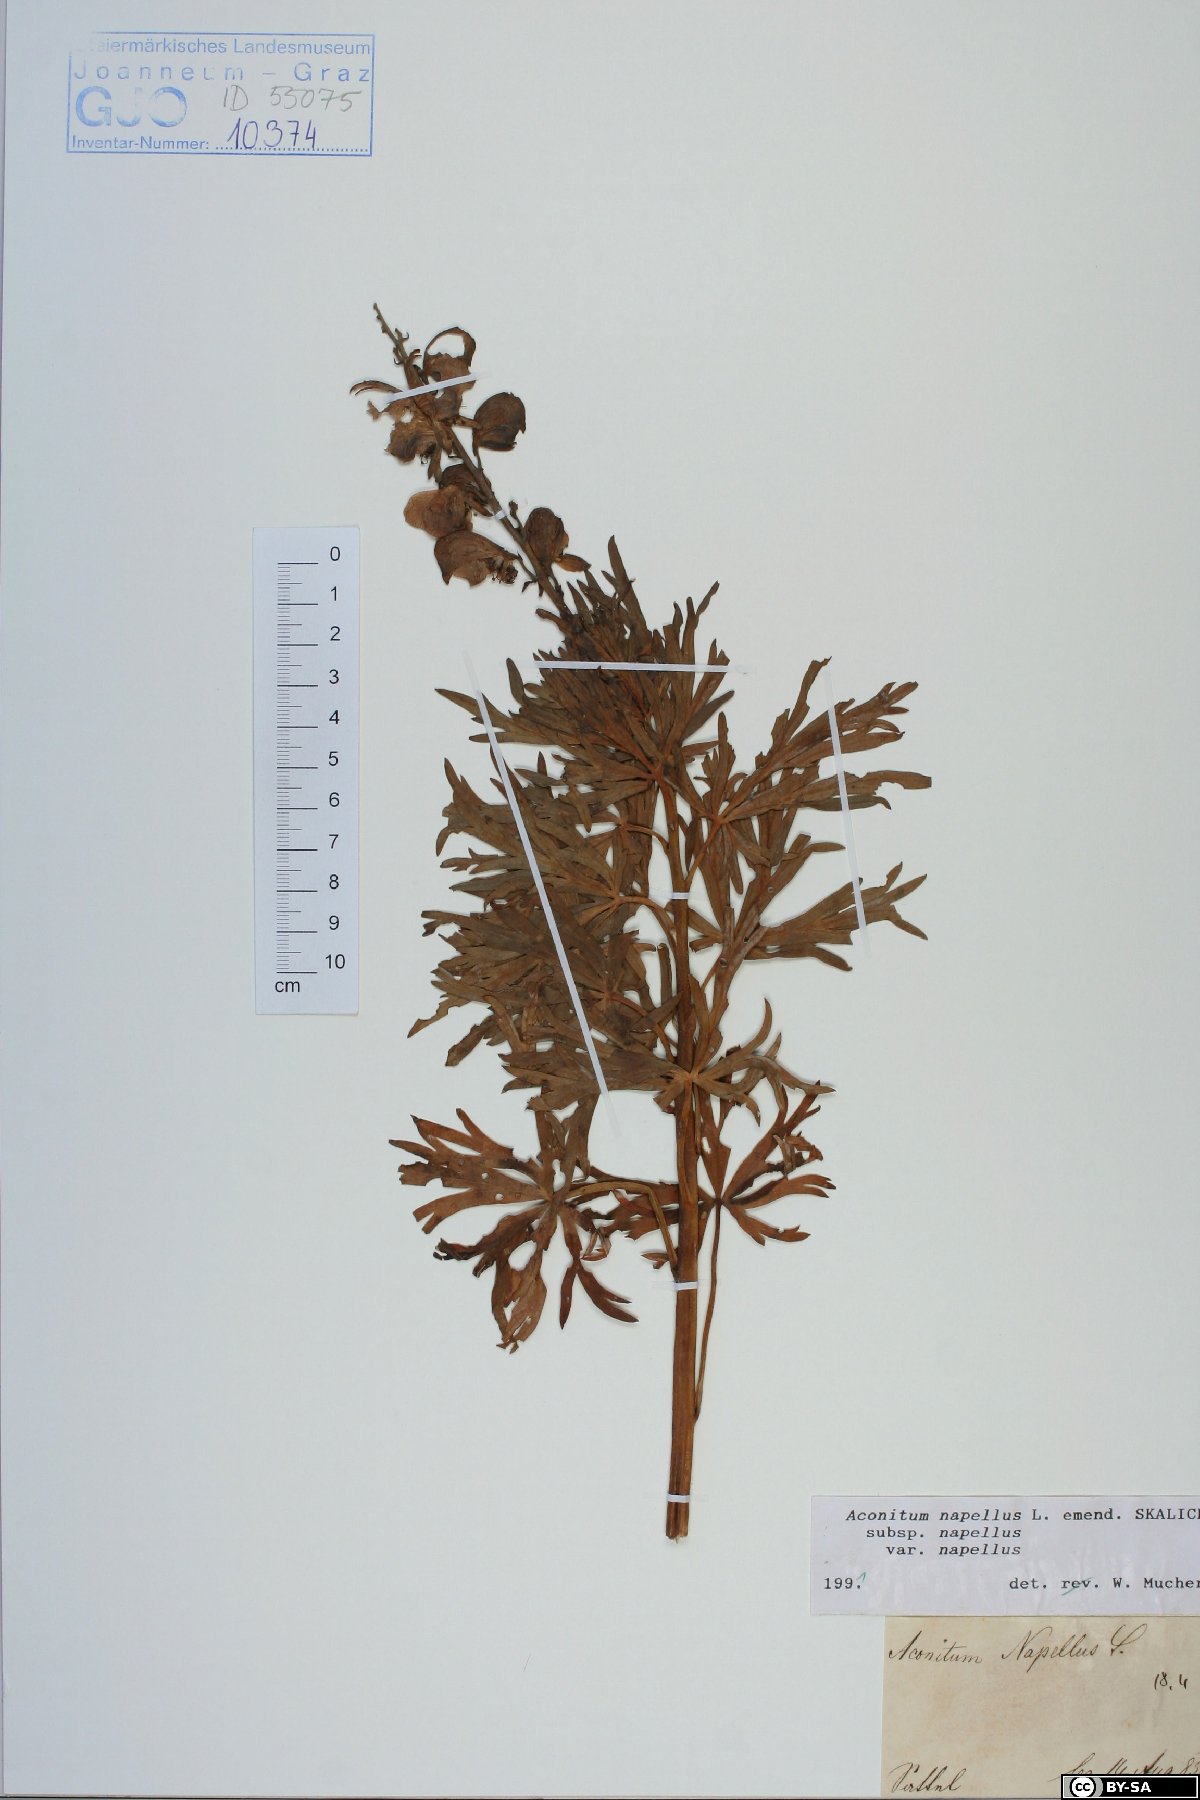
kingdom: Plantae
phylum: Tracheophyta
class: Magnoliopsida
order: Ranunculales
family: Ranunculaceae
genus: Aconitum
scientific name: Aconitum napellus
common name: Garden monkshood
